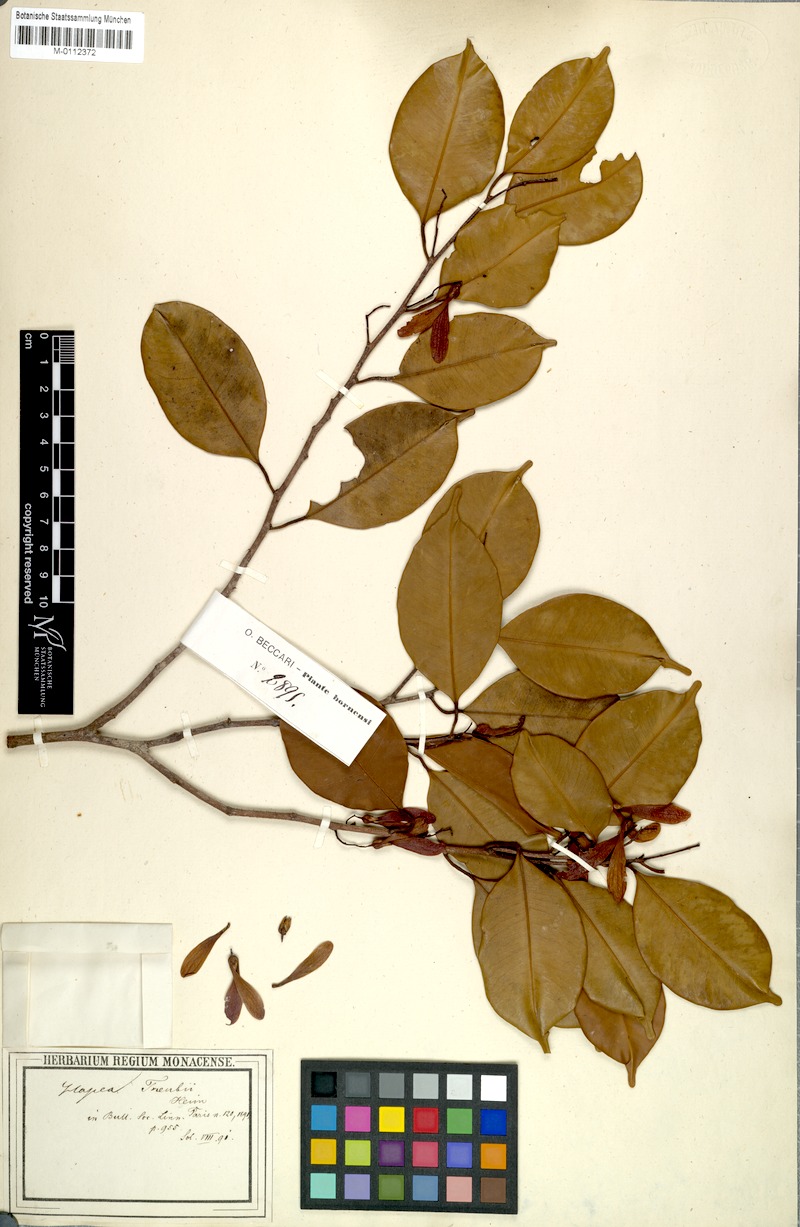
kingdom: Plantae
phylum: Tracheophyta
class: Magnoliopsida
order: Malvales
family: Dipterocarpaceae
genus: Hopea
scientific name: Hopea treubii
